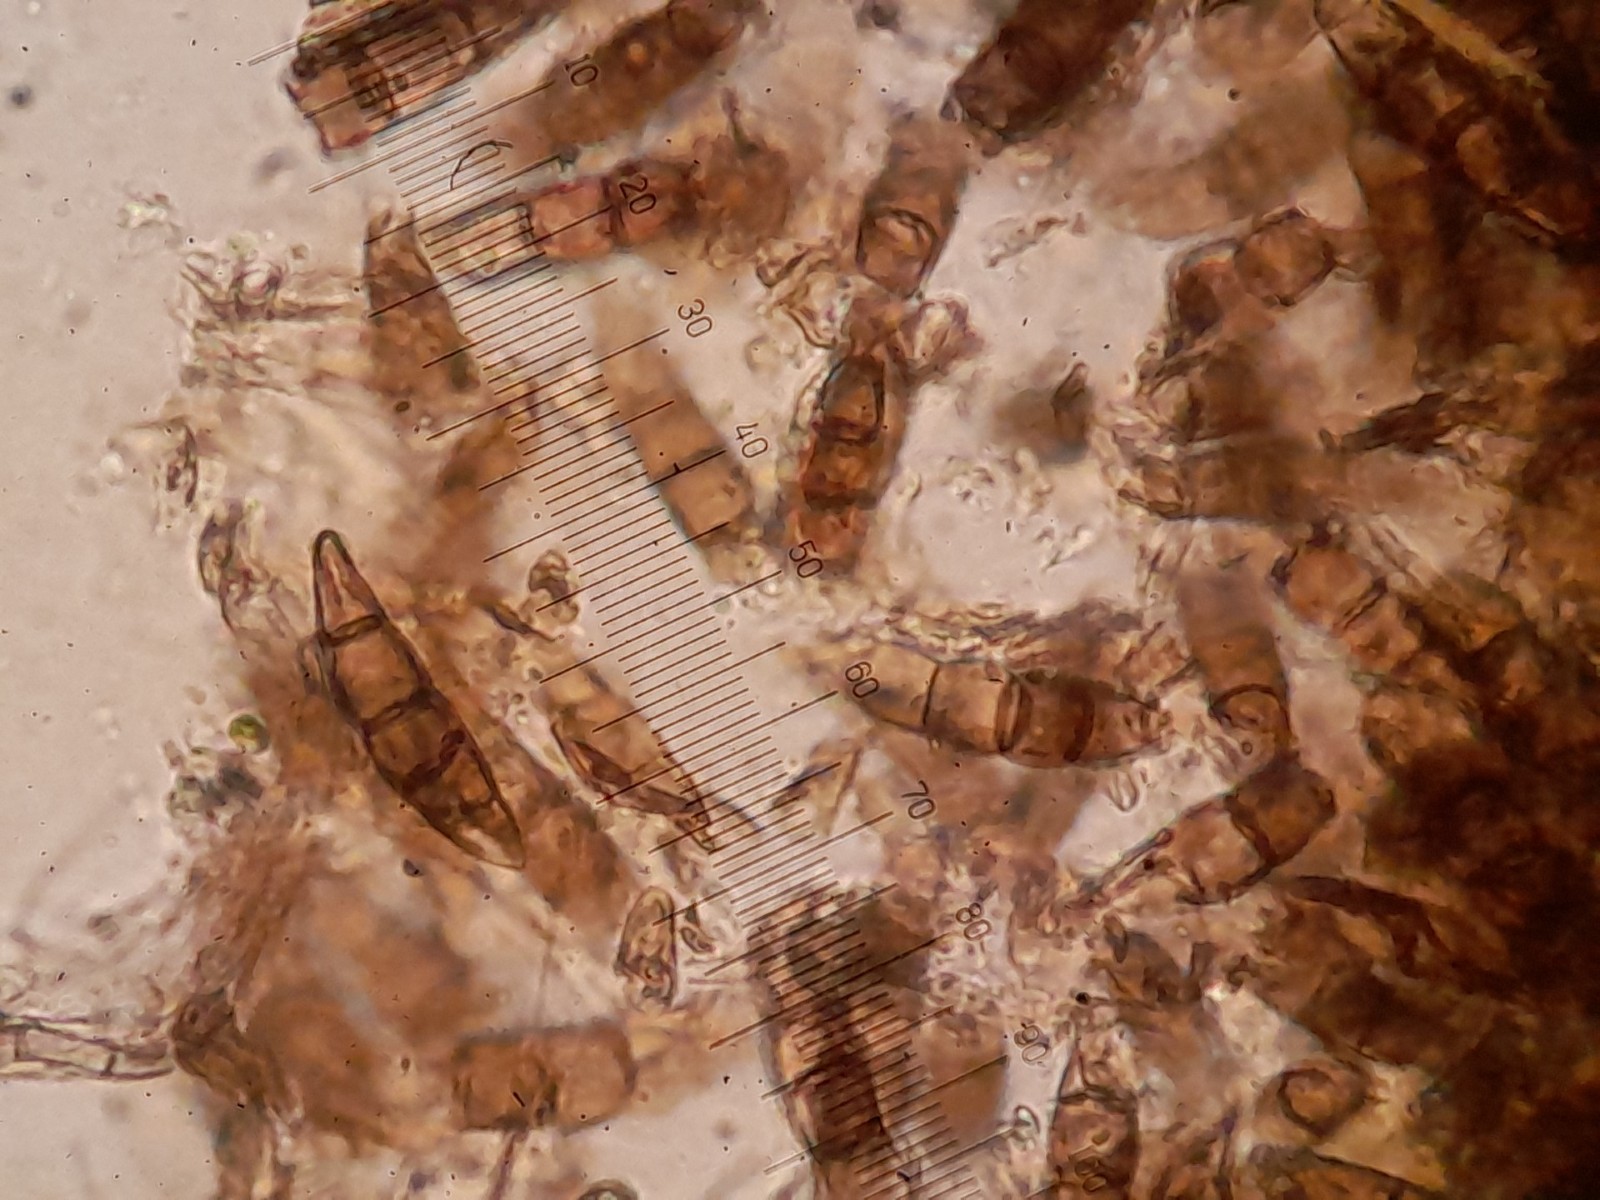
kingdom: Fungi
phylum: Ascomycota
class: Dothideomycetes
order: Pleosporales
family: Lophiostomataceae
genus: Sigarispora
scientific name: Sigarispora caudata
